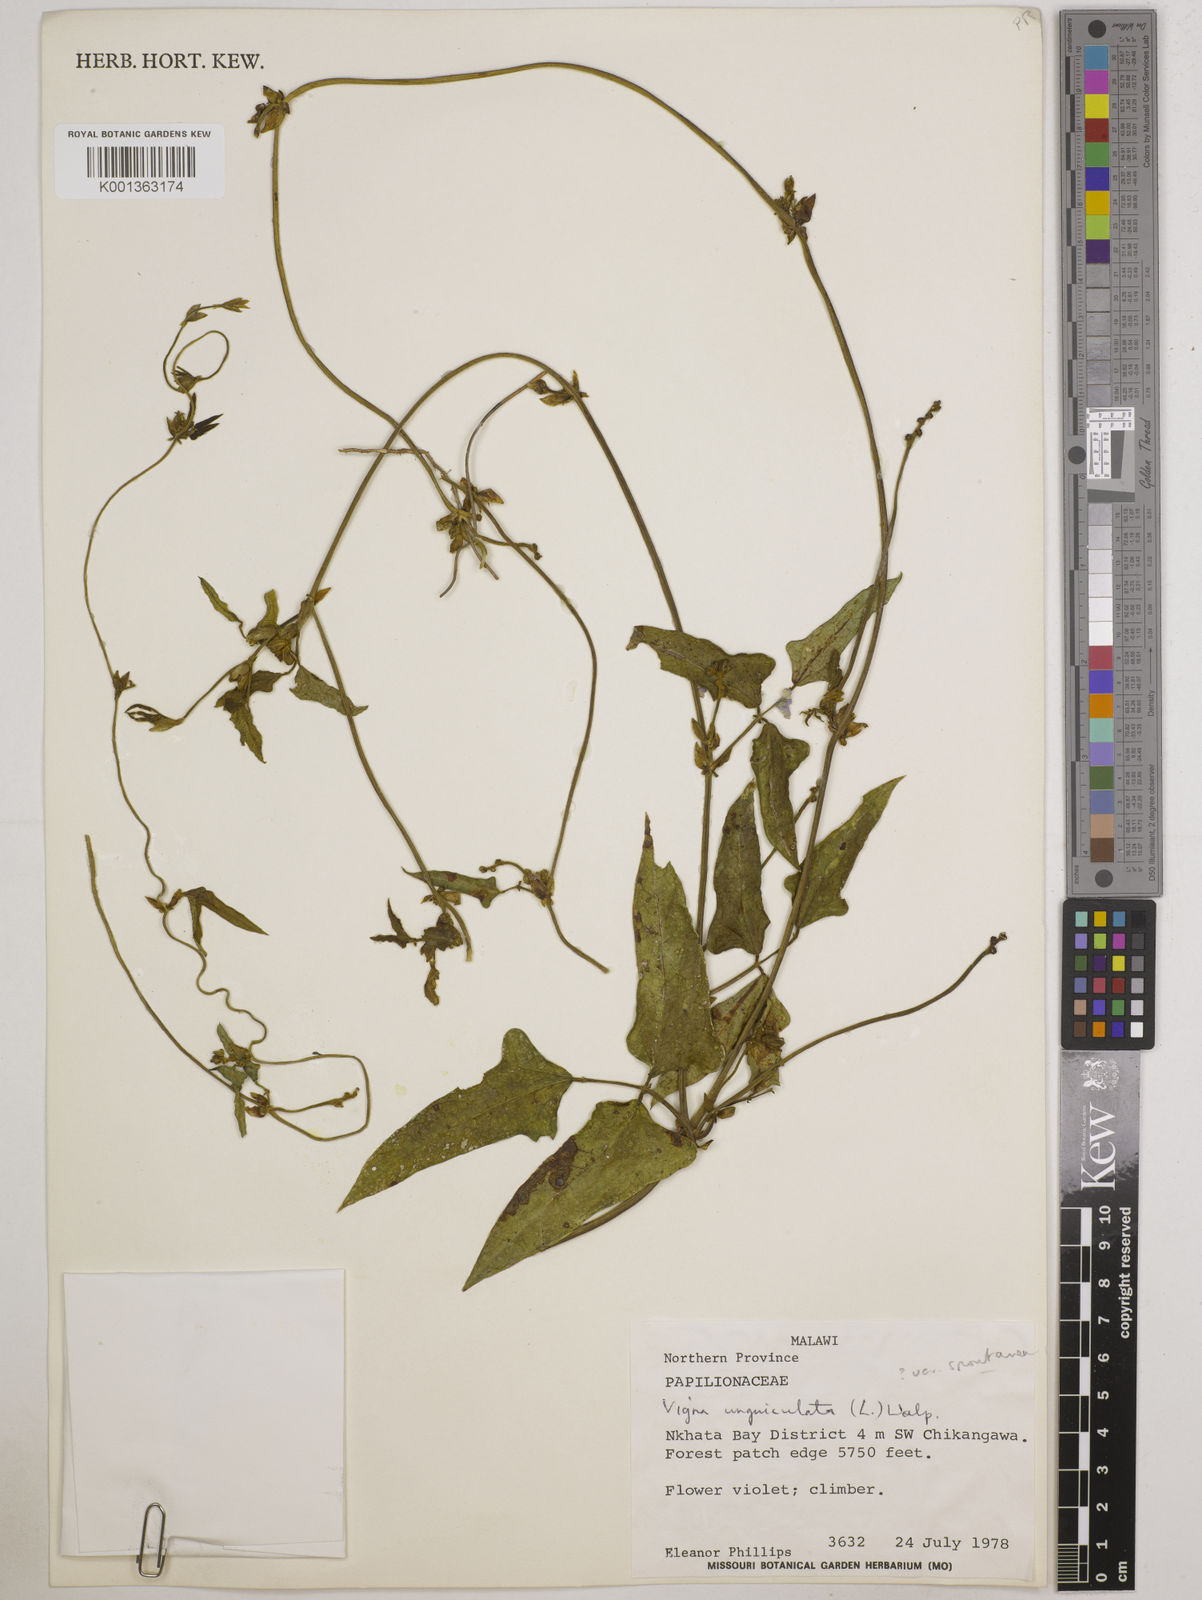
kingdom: Plantae
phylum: Tracheophyta
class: Magnoliopsida
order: Fabales
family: Fabaceae
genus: Vigna
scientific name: Vigna unguiculata
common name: Cowpea
